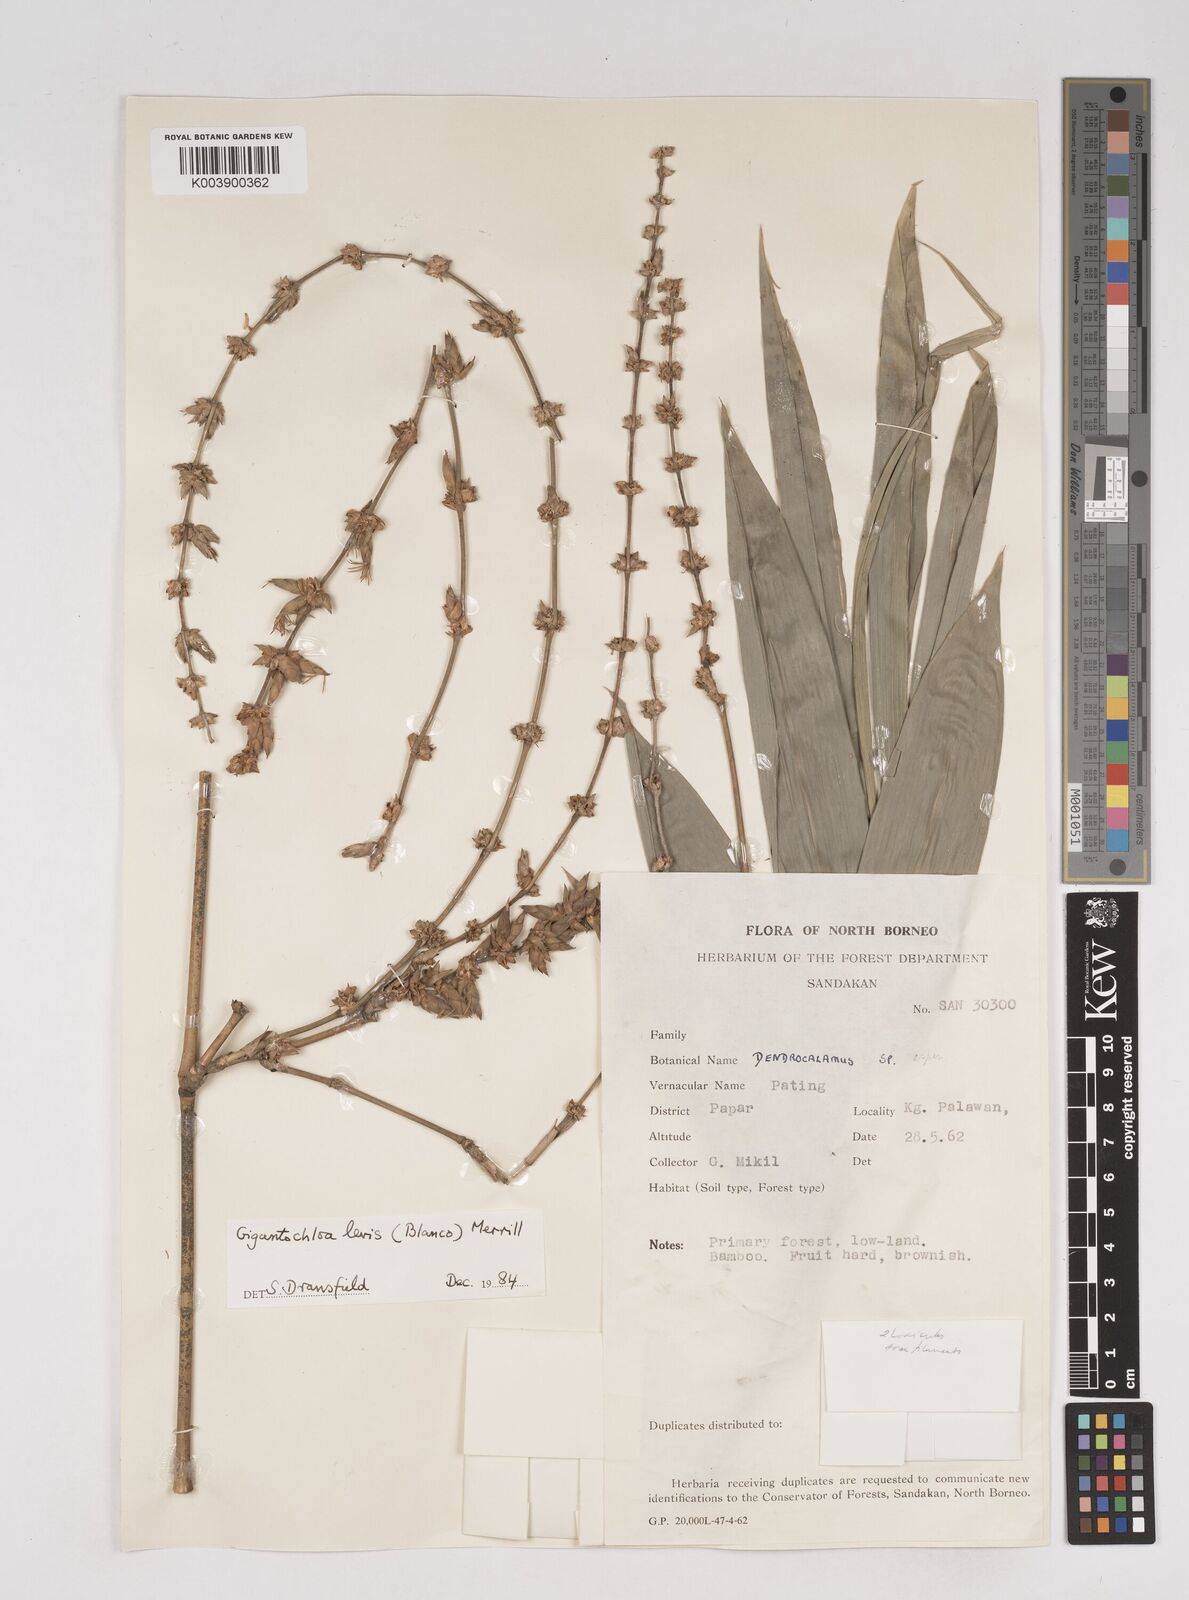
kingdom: Plantae
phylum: Tracheophyta
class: Liliopsida
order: Poales
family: Poaceae
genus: Gigantochloa
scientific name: Gigantochloa levis
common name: Smooth-shoot gigantochloa
